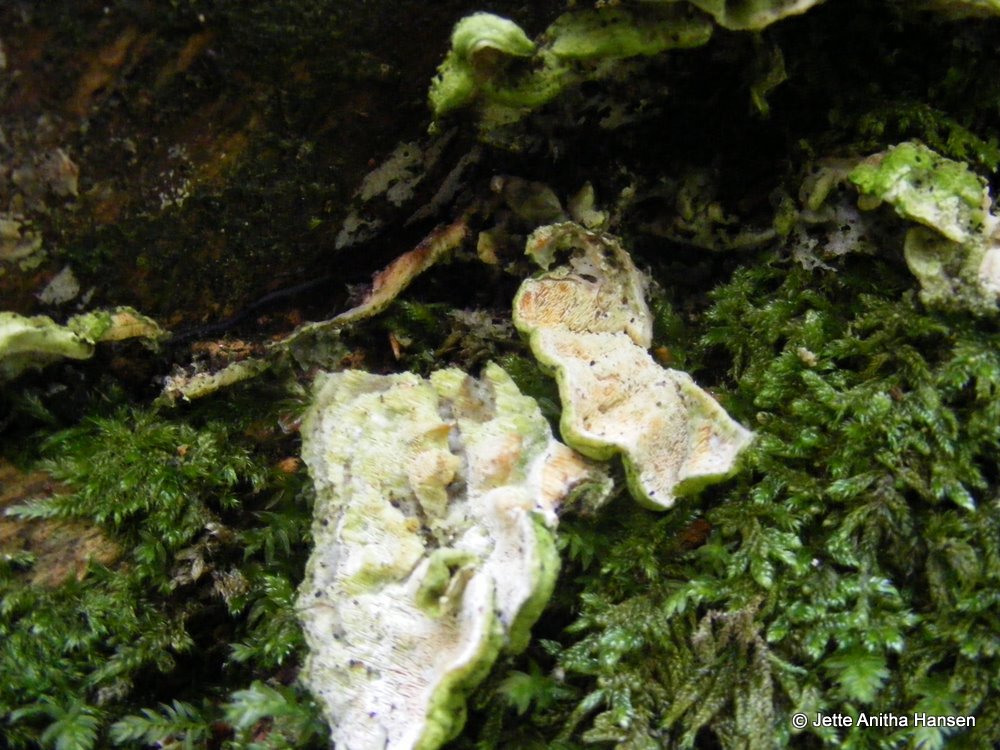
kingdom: Fungi
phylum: Basidiomycota
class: Agaricomycetes
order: Polyporales
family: Incrustoporiaceae
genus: Skeletocutis
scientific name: Skeletocutis amorpha
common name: orange krystalporesvamp
